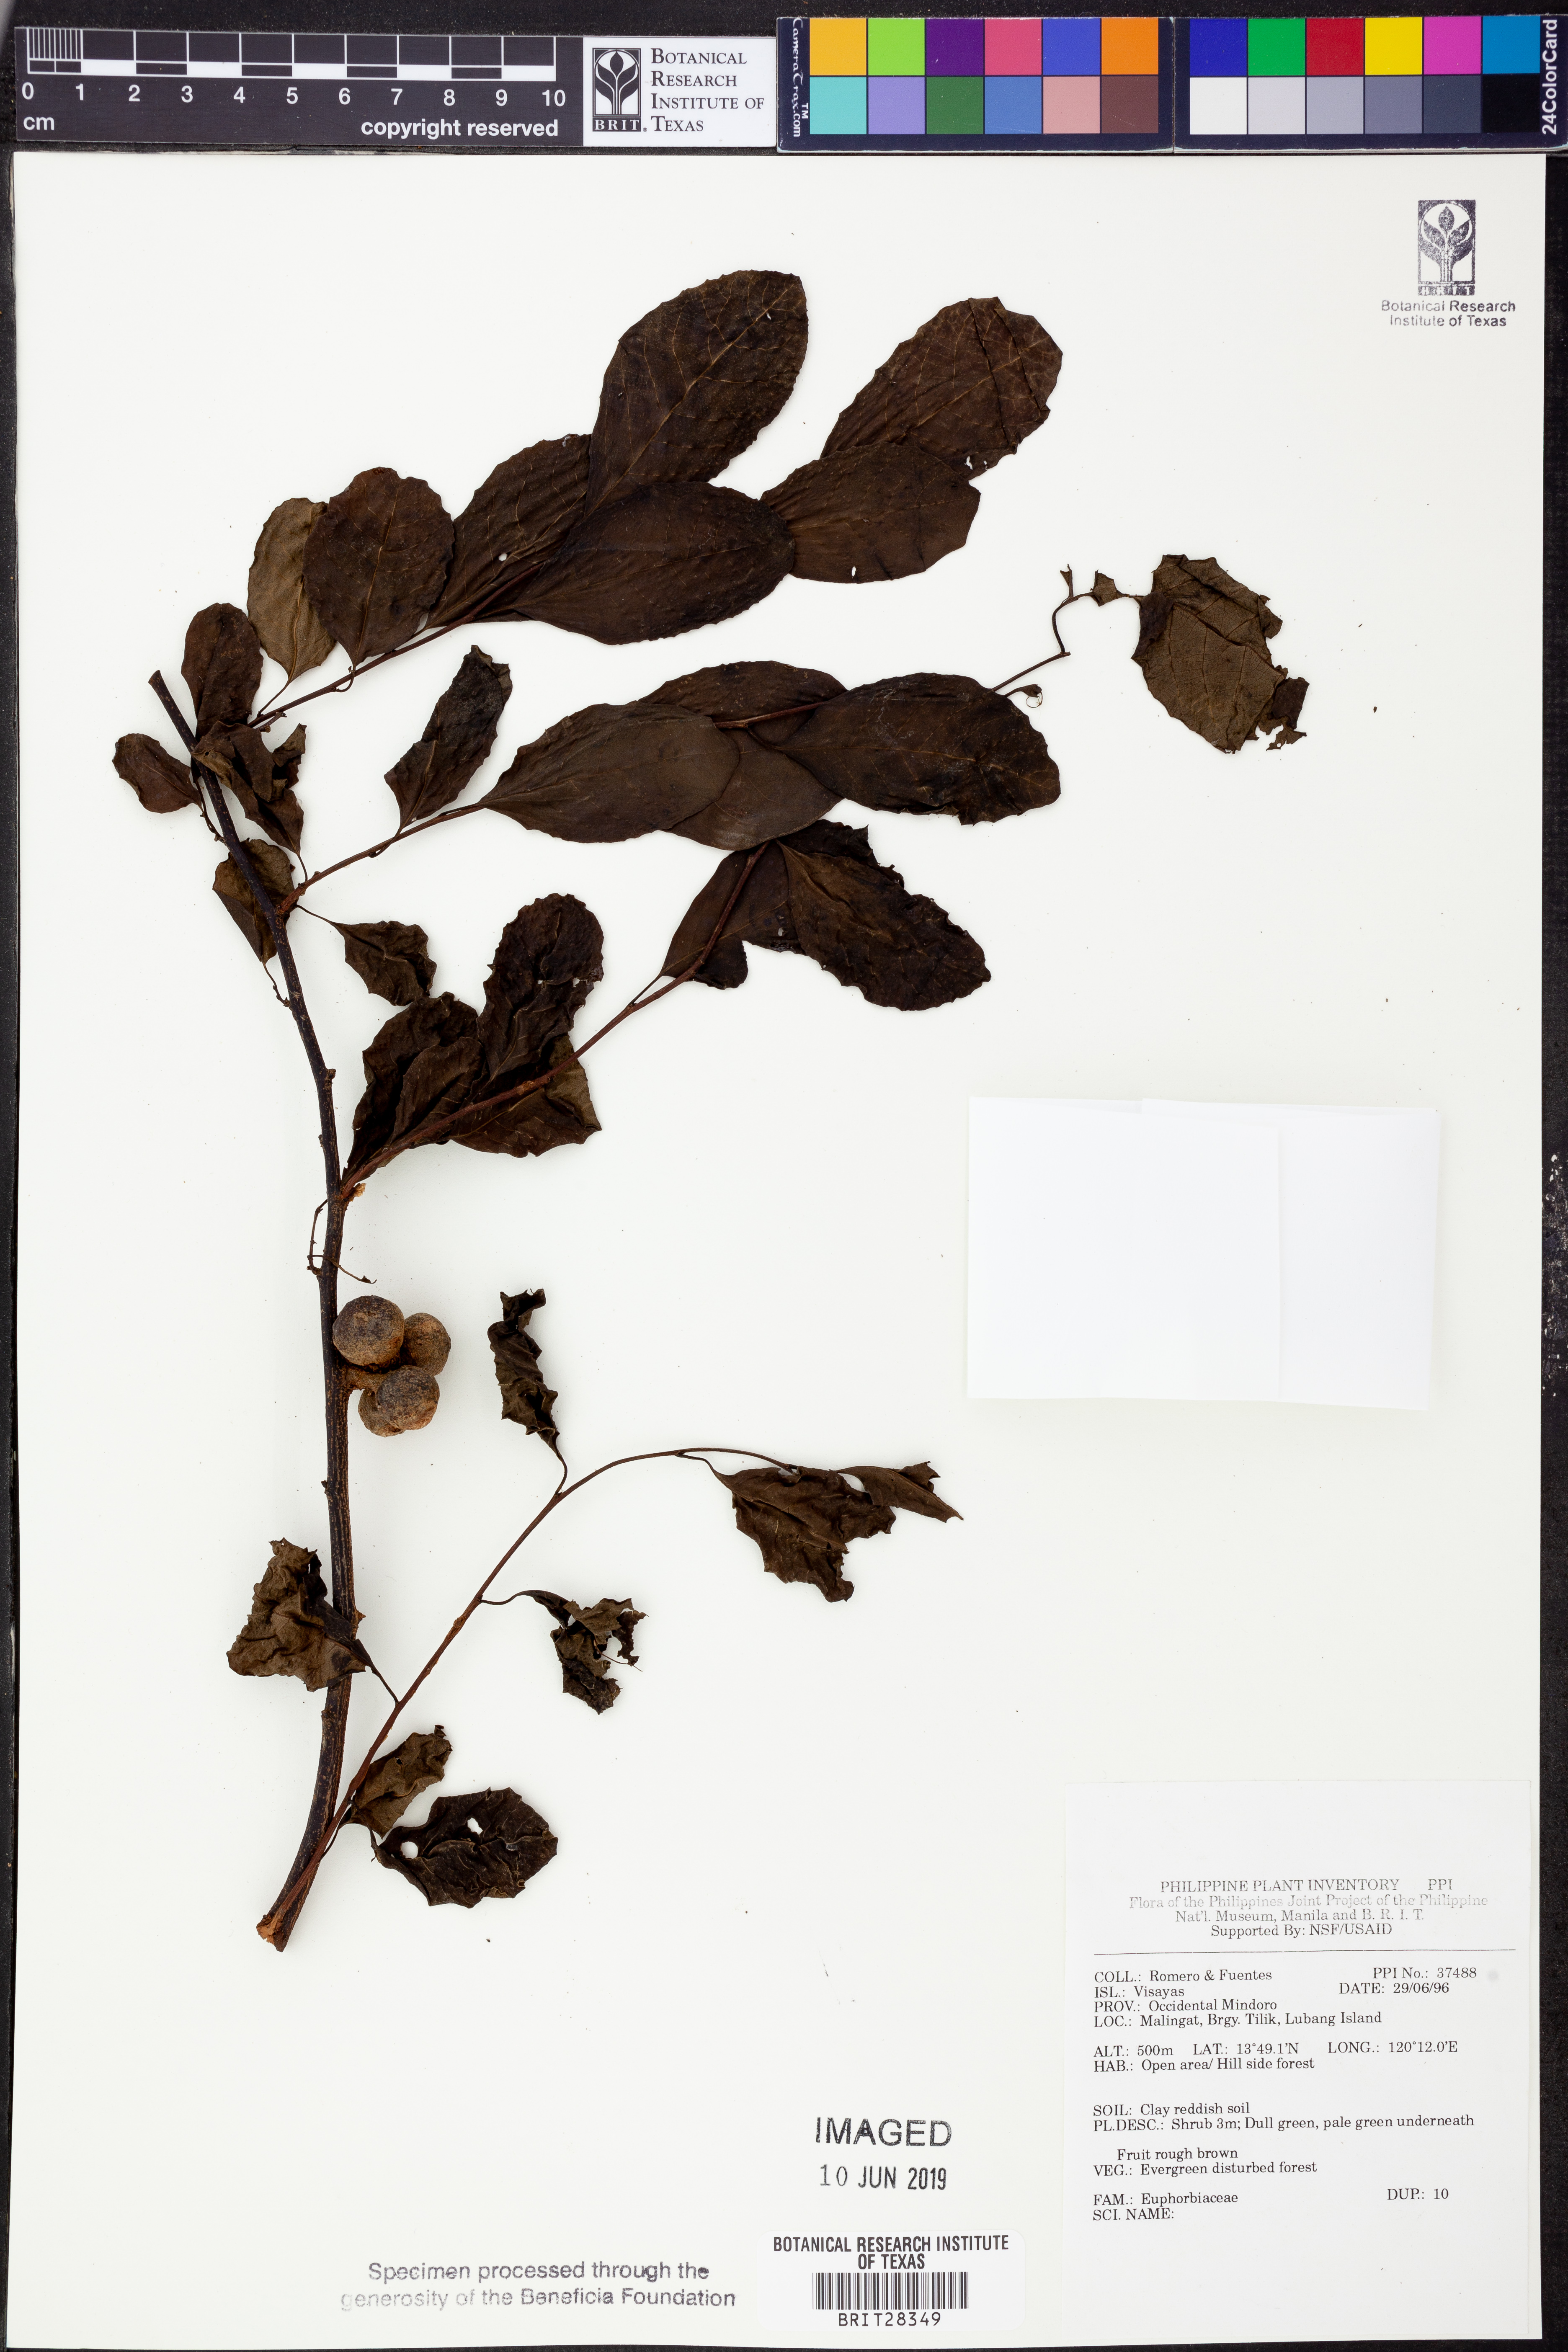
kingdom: Plantae
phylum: Tracheophyta
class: Magnoliopsida
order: Malpighiales
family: Euphorbiaceae
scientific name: Euphorbiaceae
